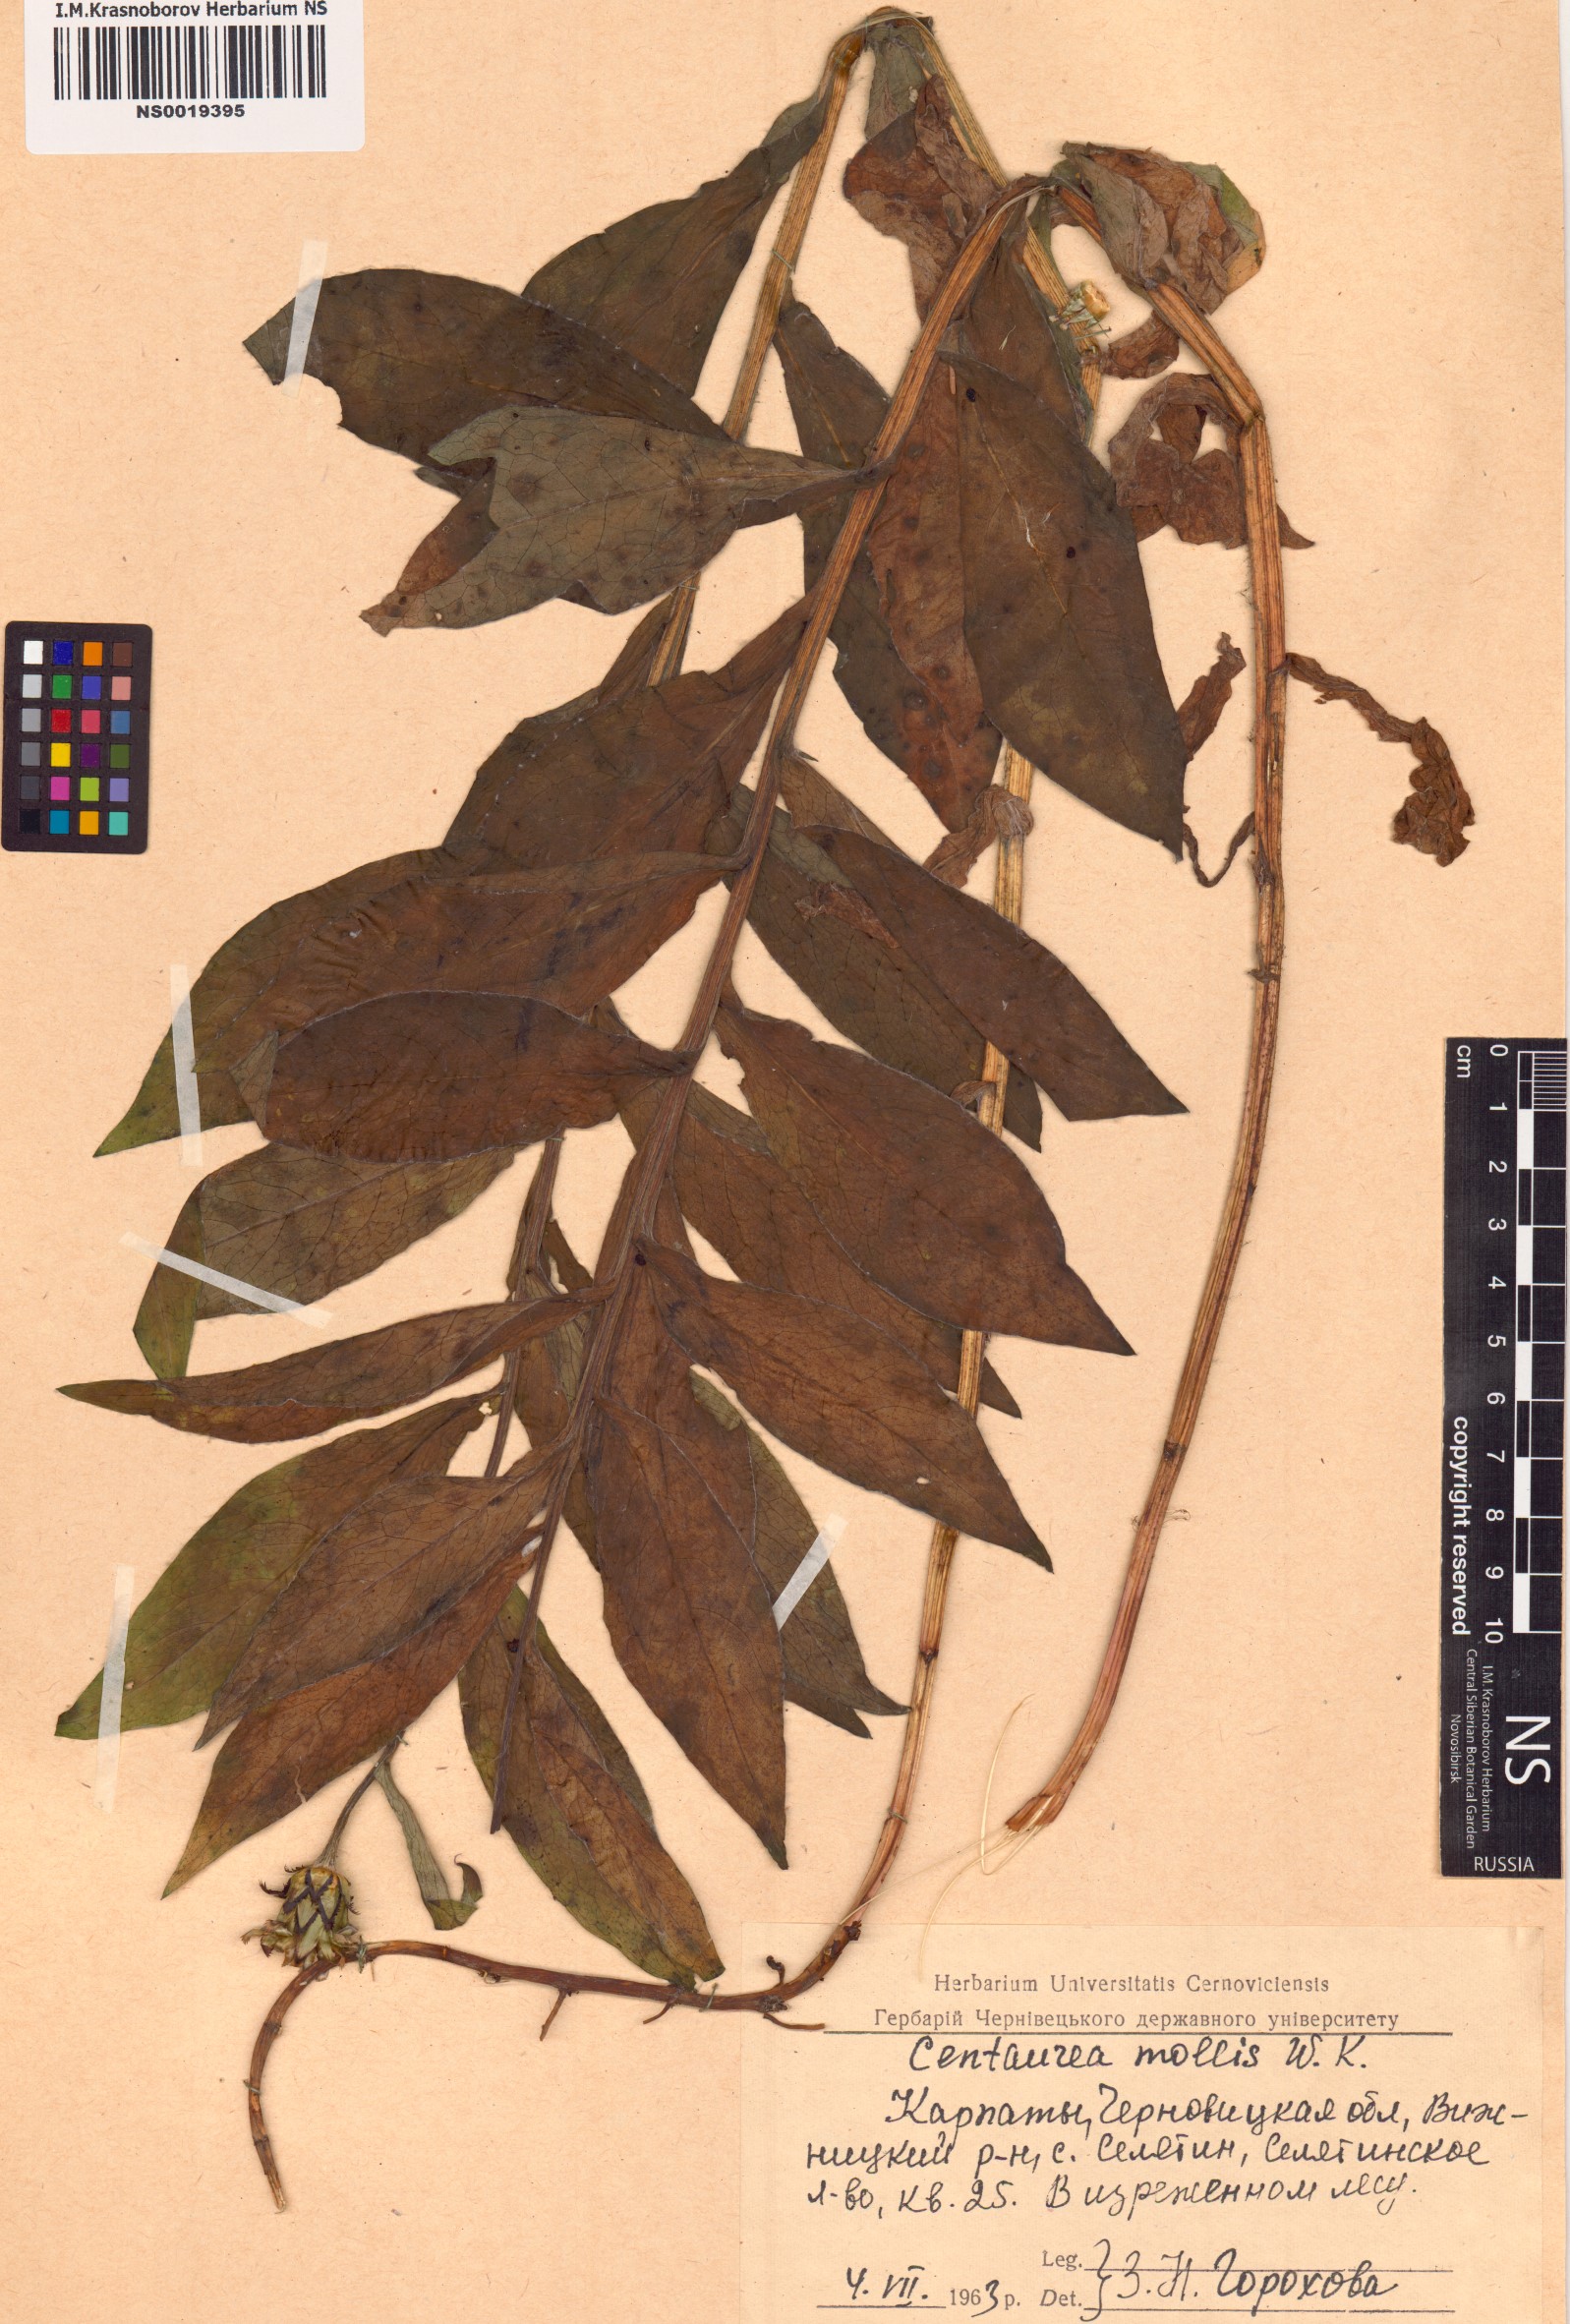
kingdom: Plantae
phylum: Tracheophyta
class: Magnoliopsida
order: Asterales
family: Asteraceae
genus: Centaurea
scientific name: Centaurea mollis
